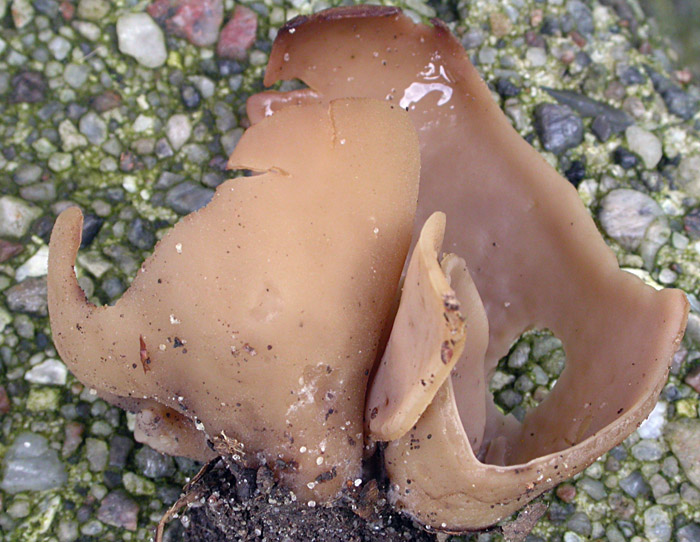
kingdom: Fungi
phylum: Ascomycota
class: Pezizomycetes
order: Pezizales
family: Otideaceae
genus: Otidea
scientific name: Otidea alutacea
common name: læder-ørebæger
